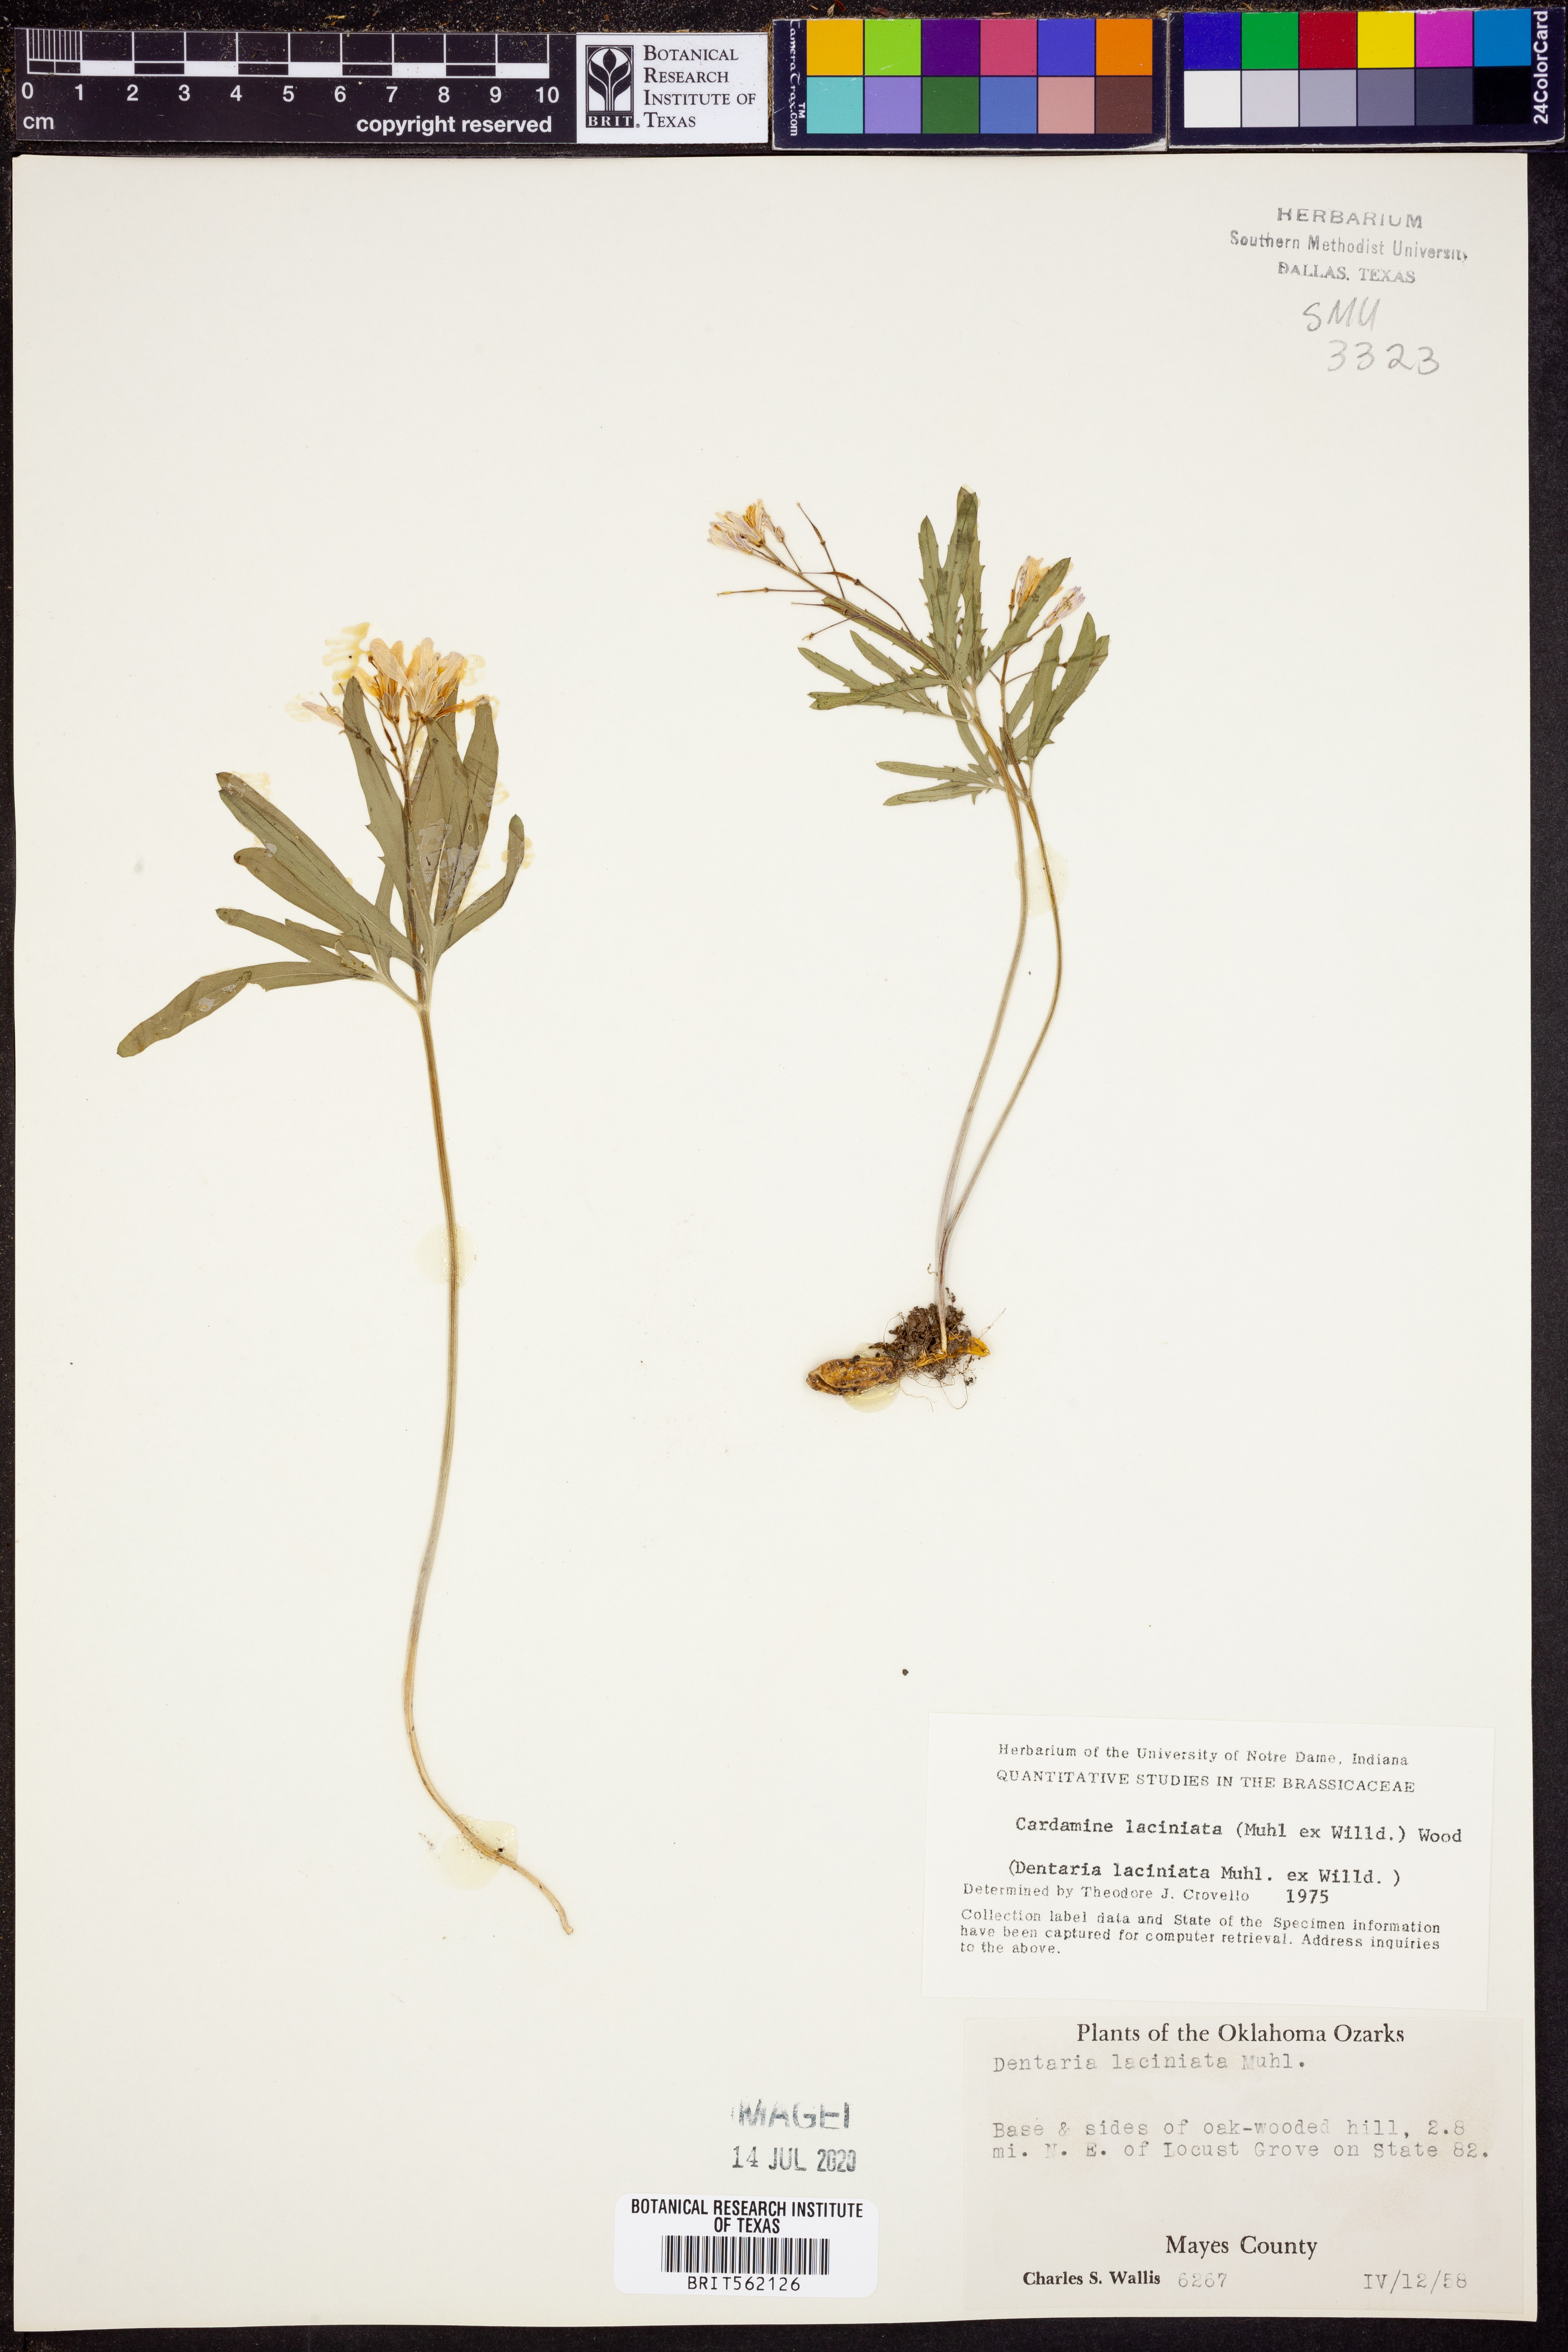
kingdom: Plantae
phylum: Tracheophyta
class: Magnoliopsida
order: Brassicales
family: Brassicaceae
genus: Rorippa
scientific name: Rorippa laciniata
